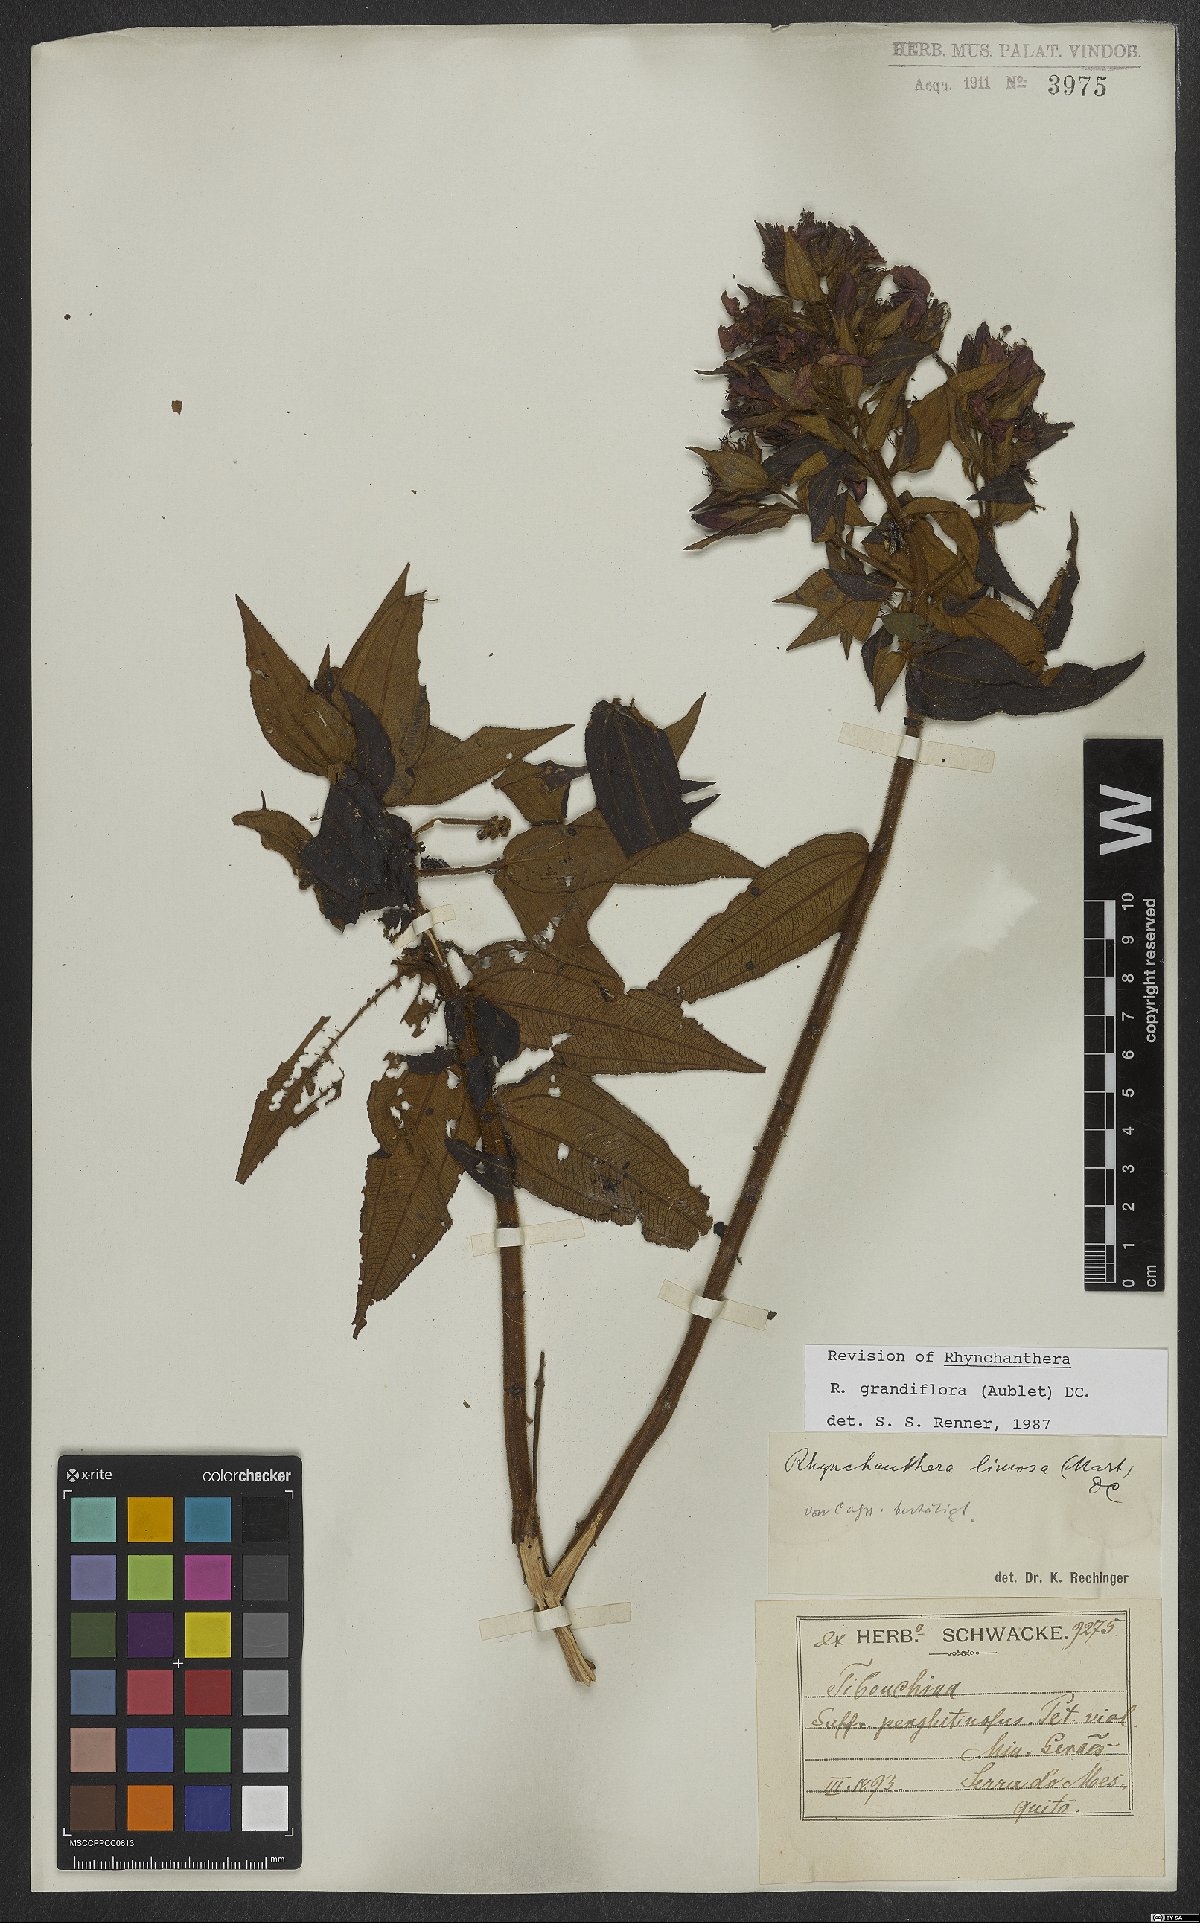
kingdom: Plantae
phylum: Tracheophyta
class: Magnoliopsida
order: Myrtales
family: Melastomataceae
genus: Rhynchanthera
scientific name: Rhynchanthera grandiflora
